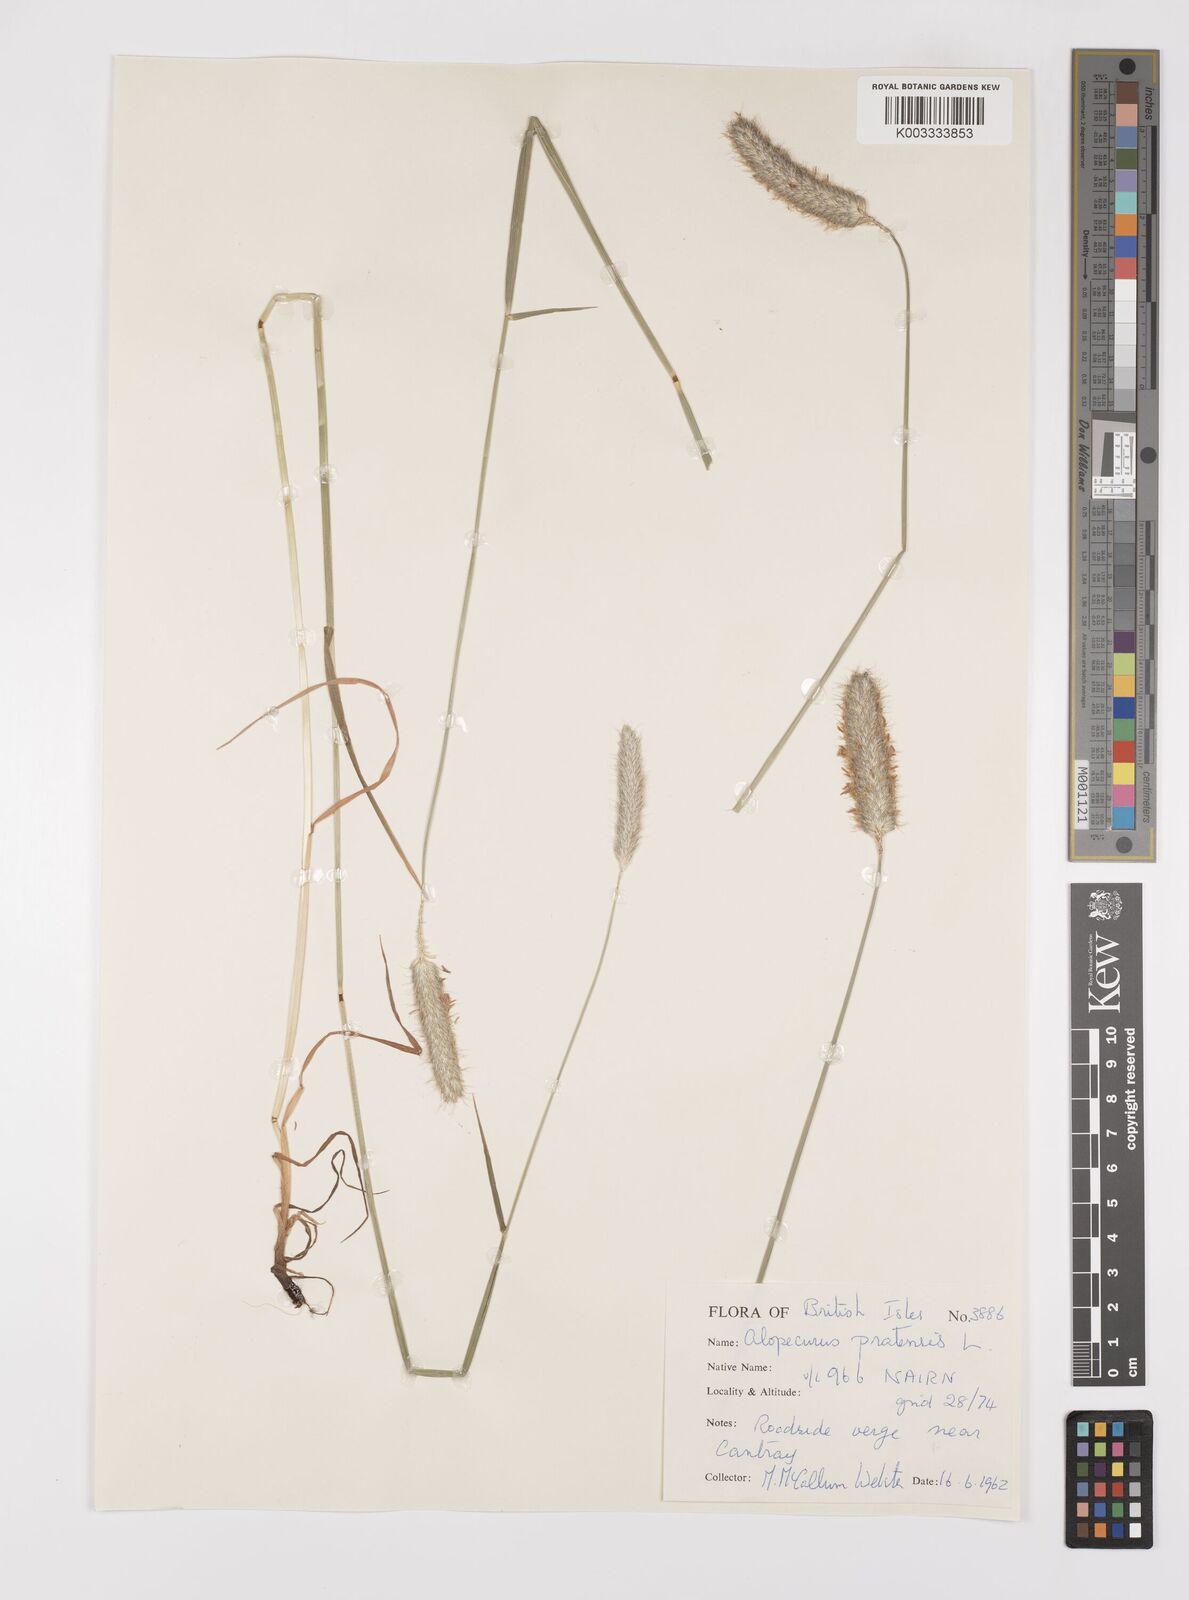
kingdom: Plantae
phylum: Tracheophyta
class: Liliopsida
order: Poales
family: Poaceae
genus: Alopecurus
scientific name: Alopecurus pratensis
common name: Meadow foxtail
